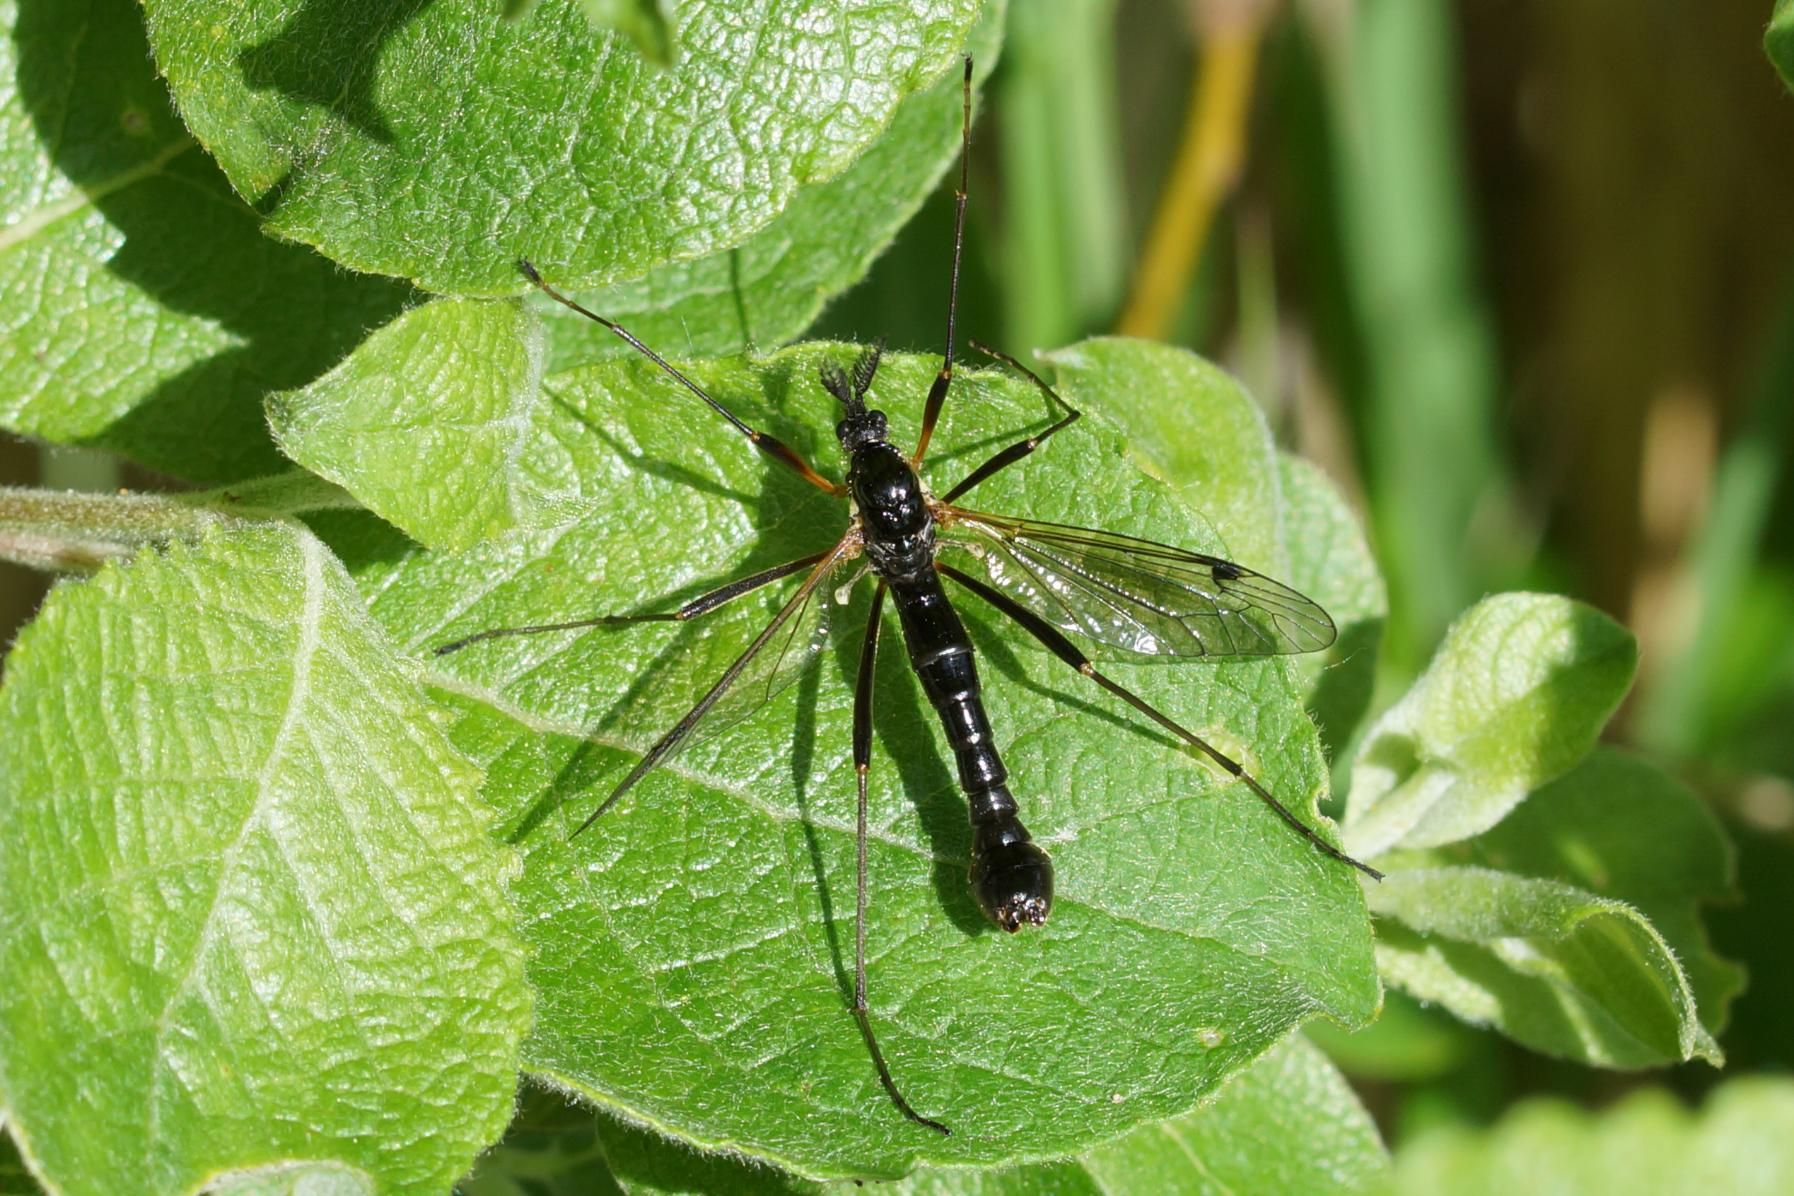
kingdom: Animalia
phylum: Arthropoda
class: Insecta
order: Diptera
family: Tipulidae
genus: Tanyptera
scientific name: Tanyptera atrata
